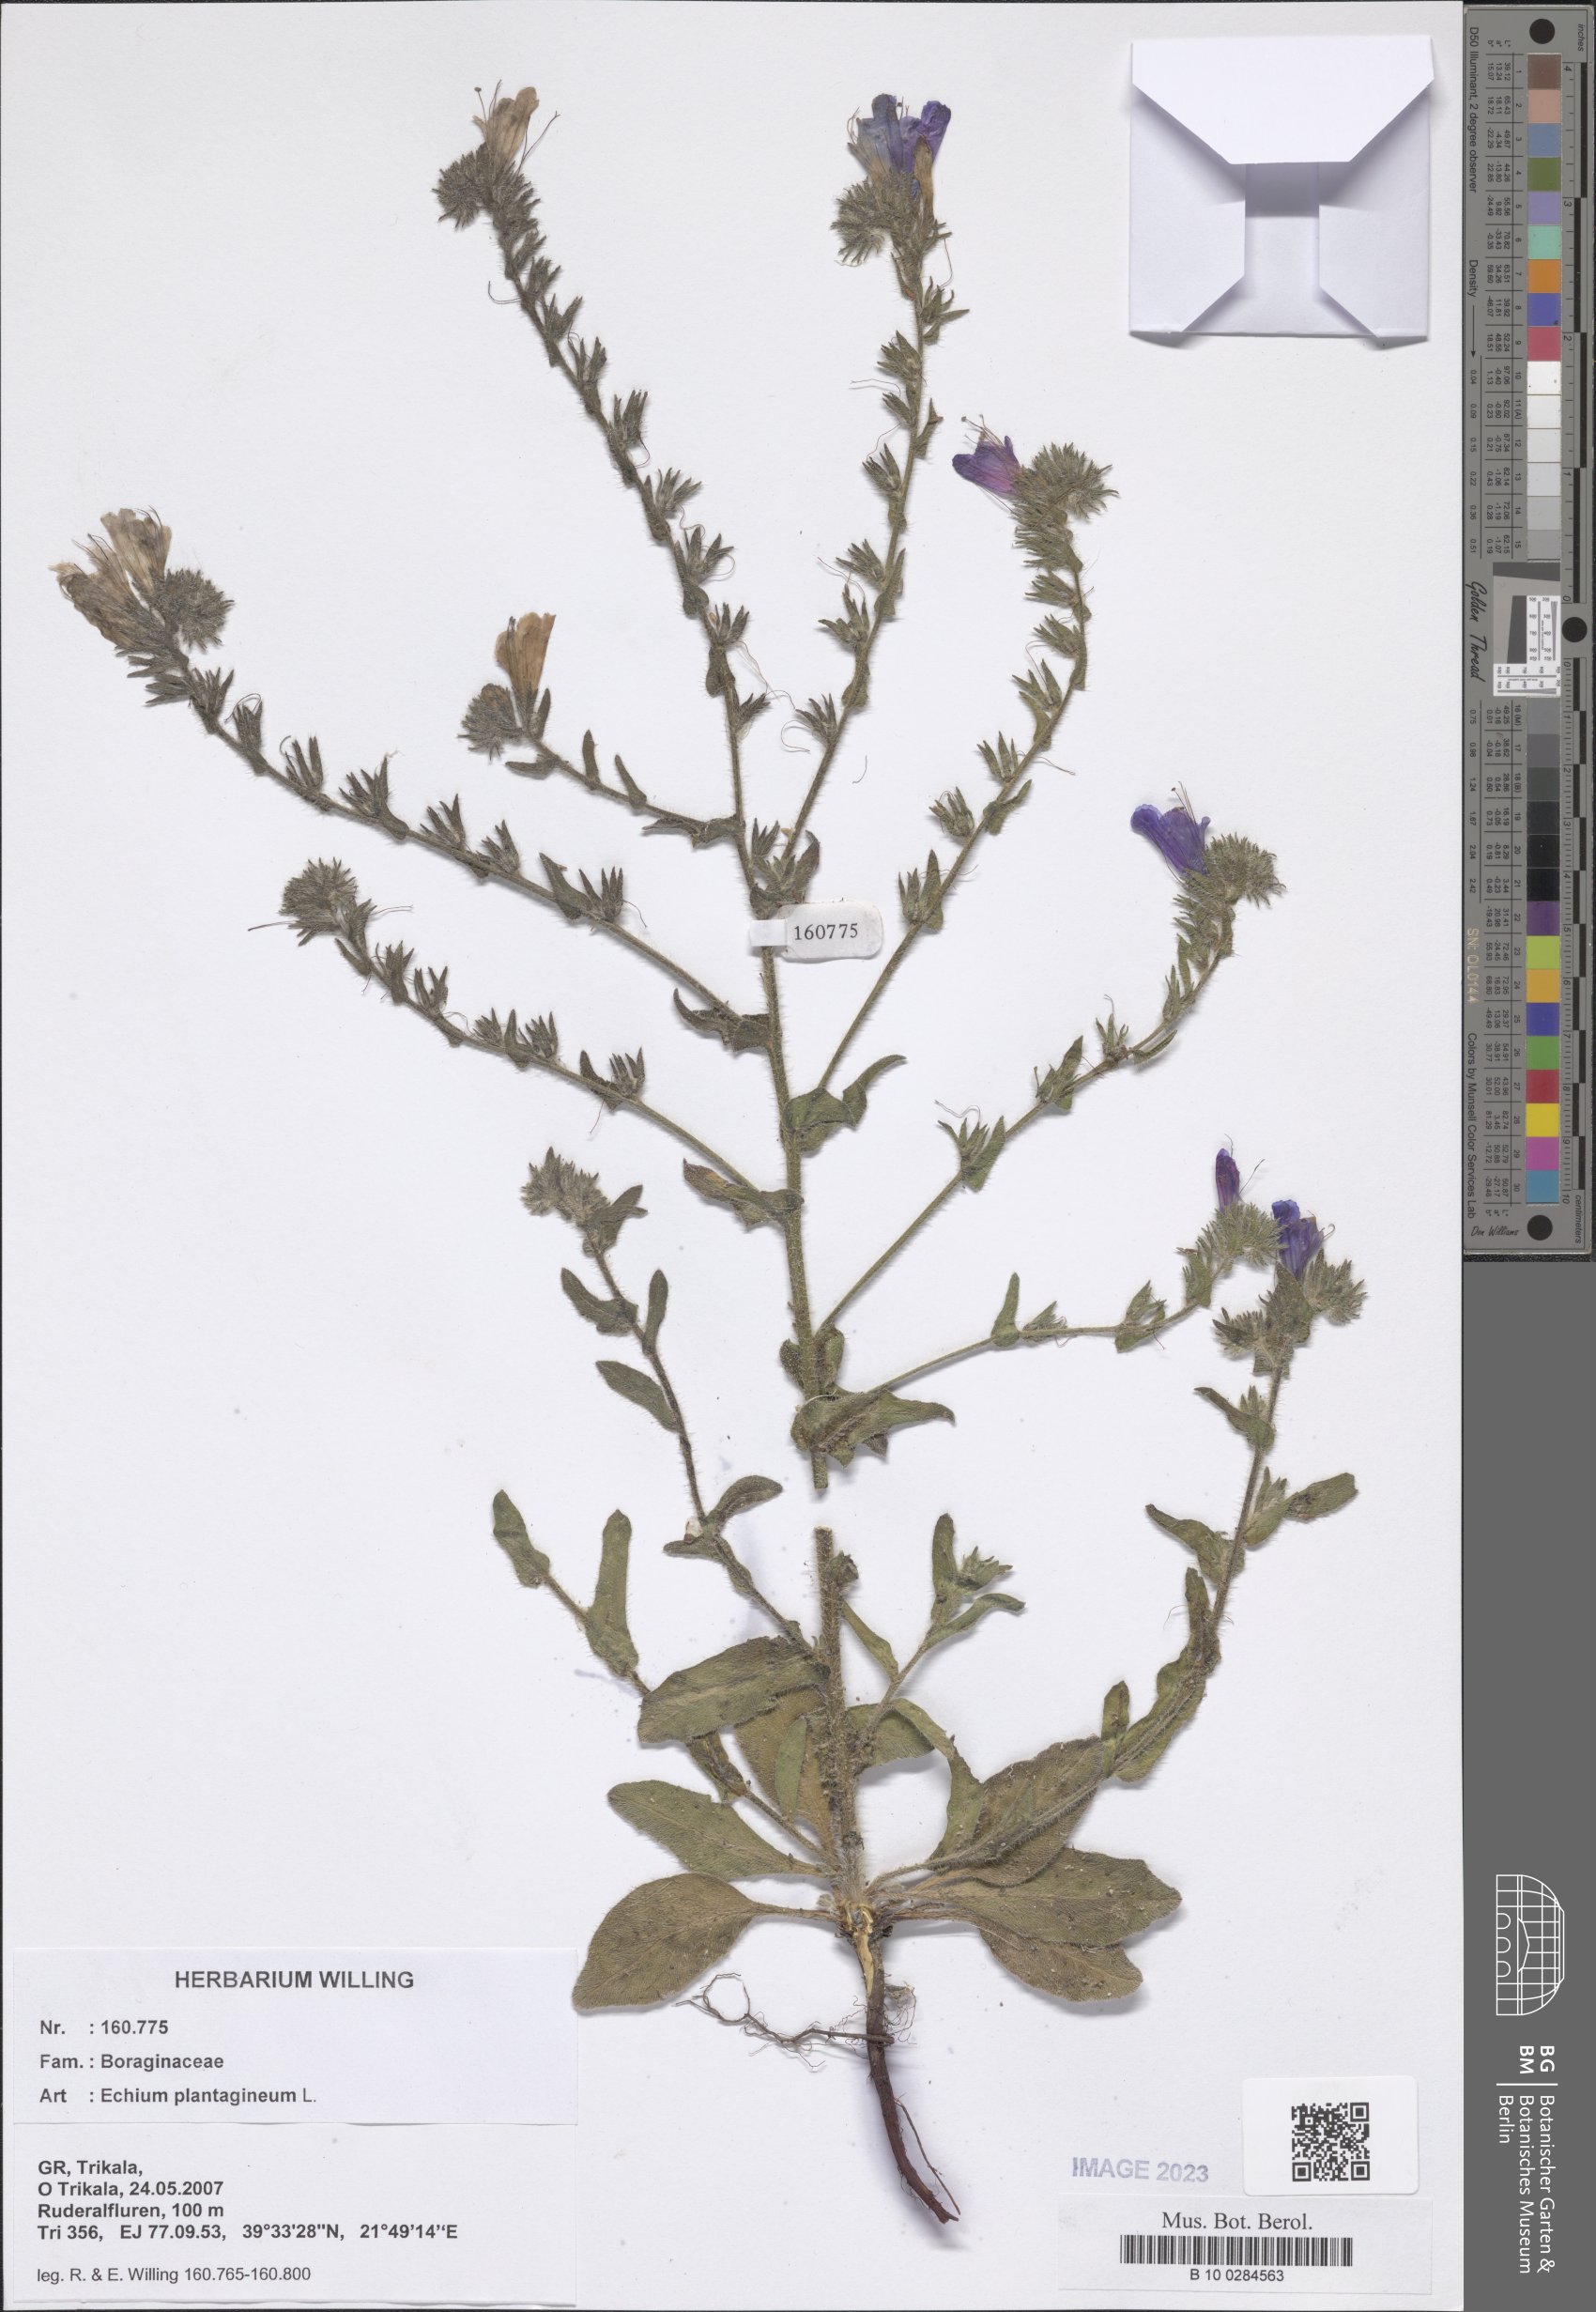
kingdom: Plantae
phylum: Tracheophyta
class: Magnoliopsida
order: Boraginales
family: Boraginaceae
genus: Echium
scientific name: Echium plantagineum
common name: Purple viper's-bugloss
